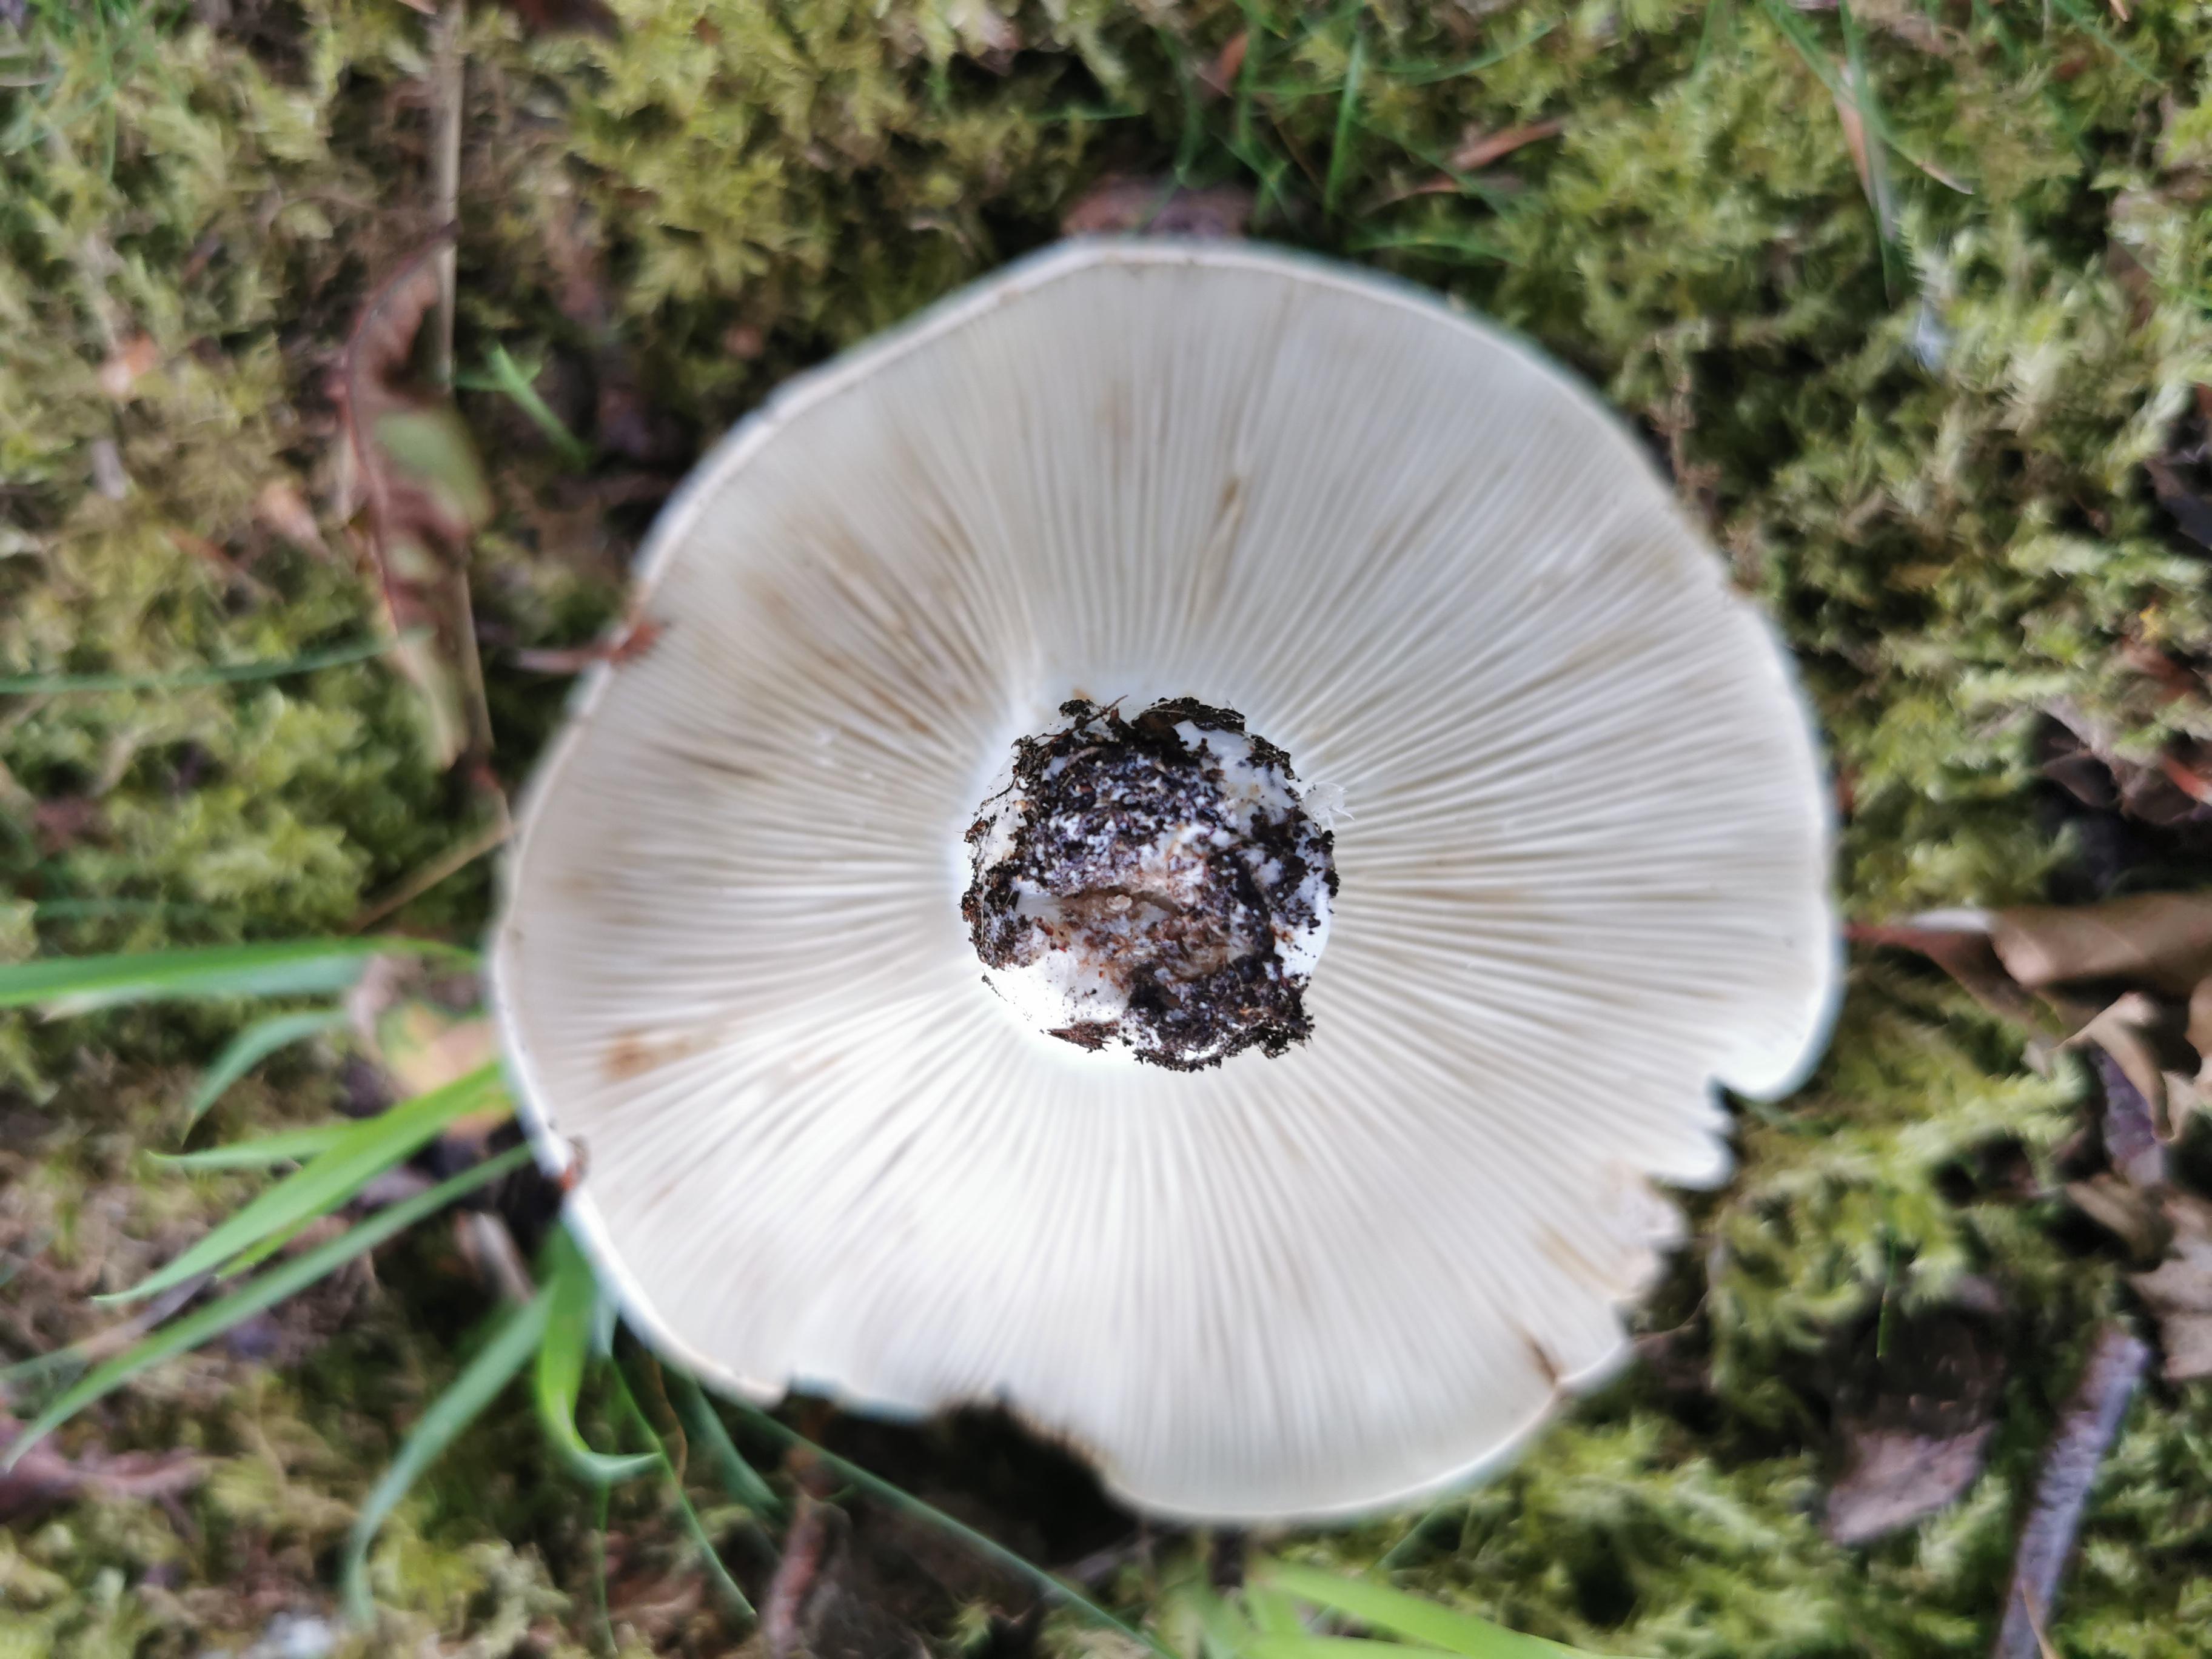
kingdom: Fungi
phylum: Basidiomycota
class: Agaricomycetes
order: Russulales
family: Russulaceae
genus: Lactifluus
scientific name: Lactifluus bertillonii
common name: blødfiltet mælkehat
